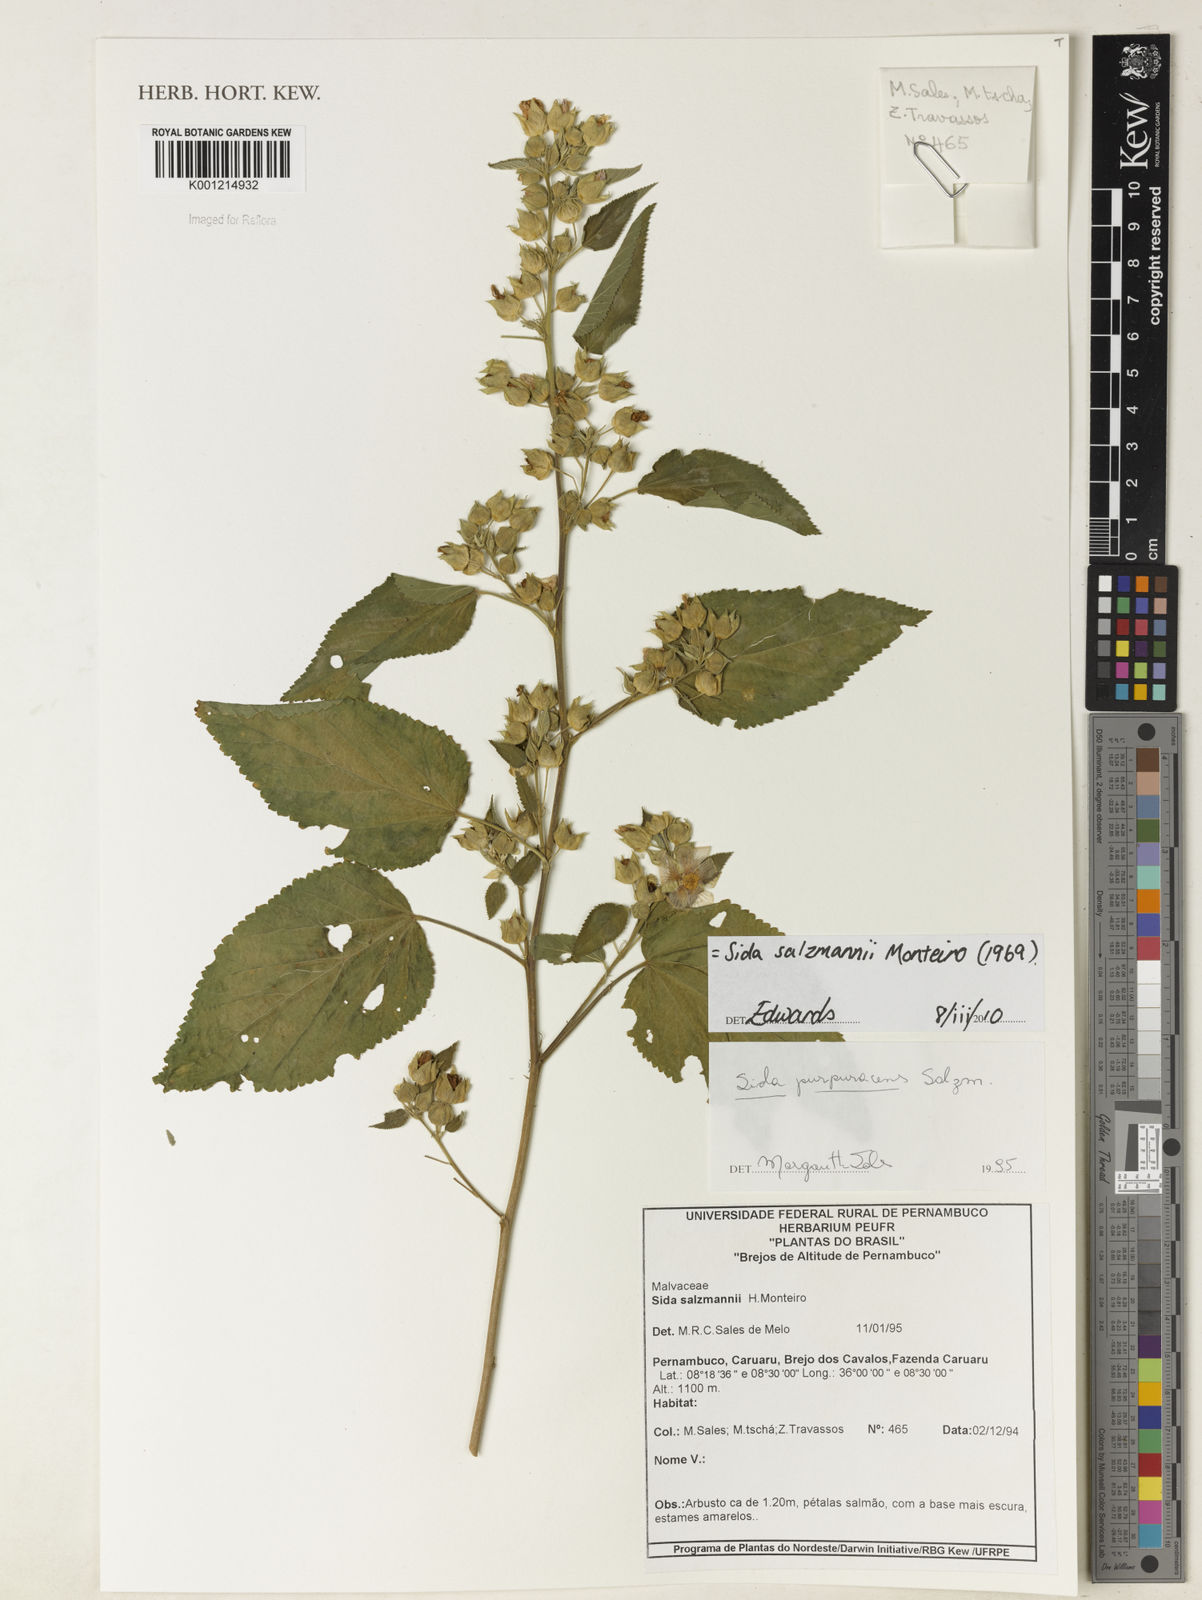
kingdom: Plantae
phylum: Tracheophyta
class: Magnoliopsida
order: Malvales
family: Malvaceae
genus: Sida
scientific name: Sida ulei
